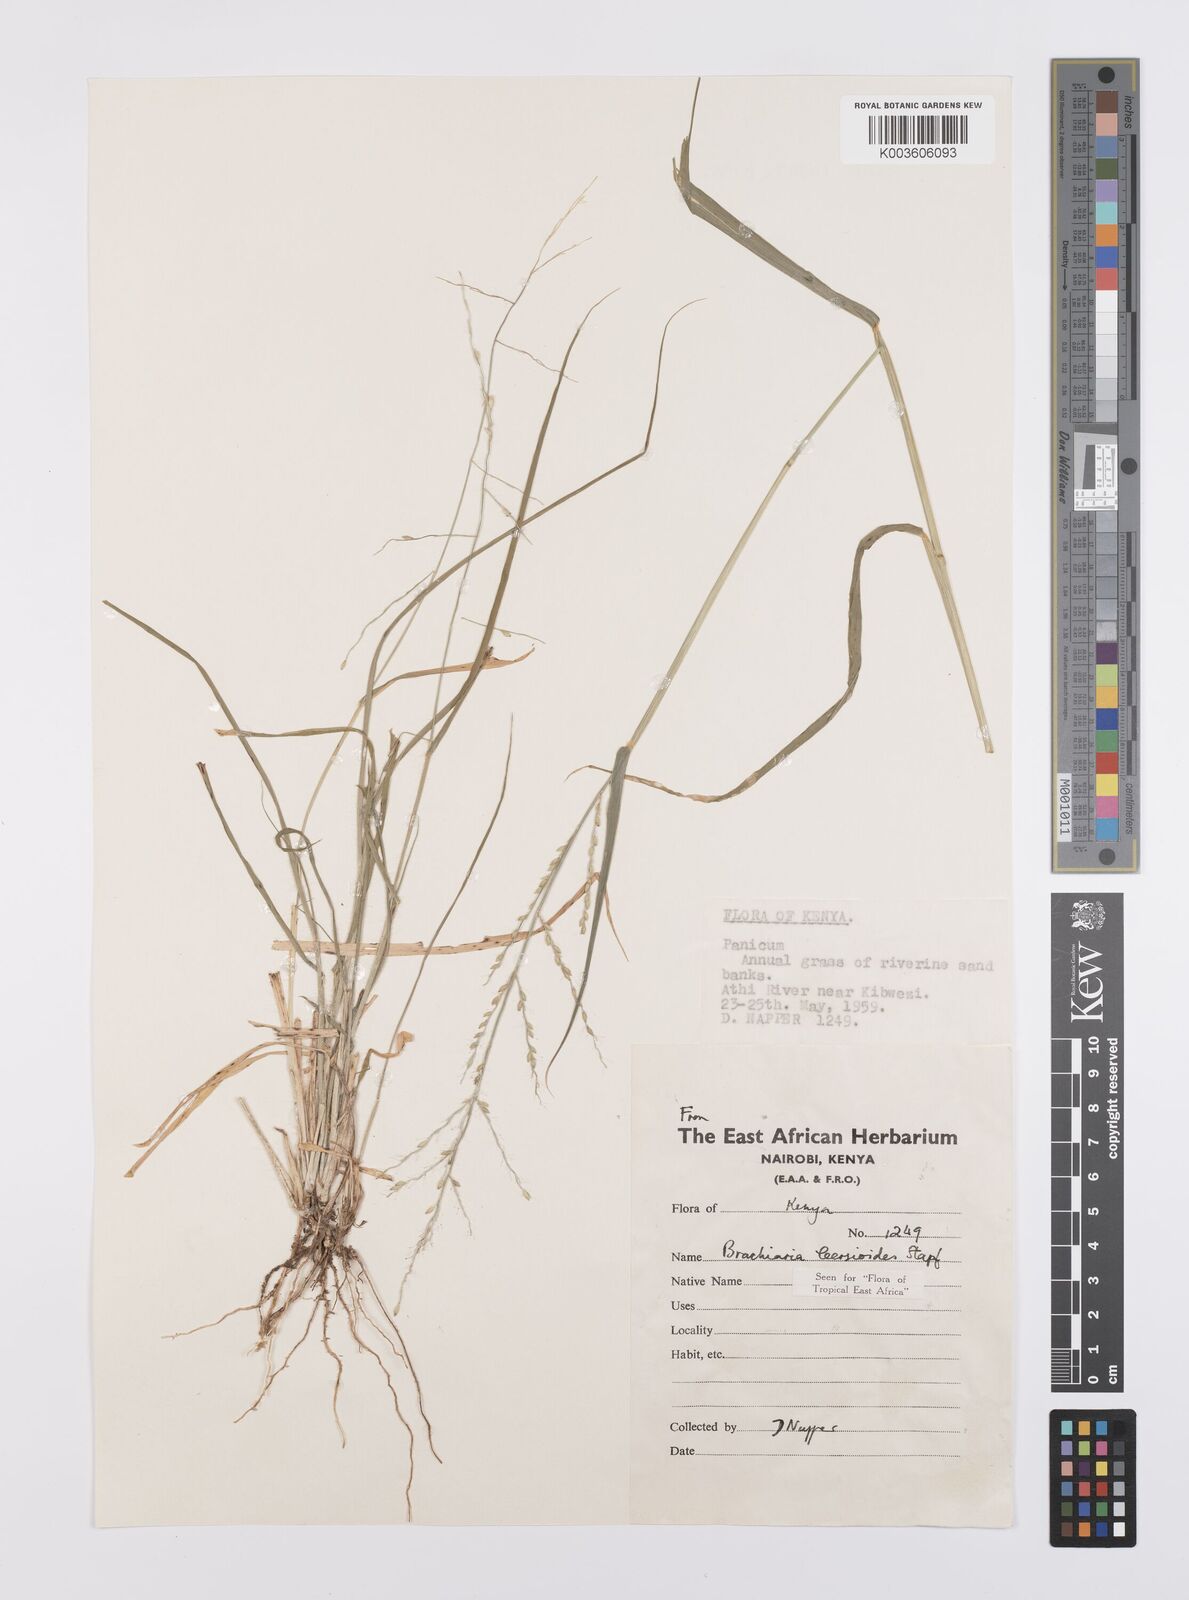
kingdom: Plantae
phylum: Tracheophyta
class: Liliopsida
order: Poales
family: Poaceae
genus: Urochloa
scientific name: Urochloa leersioides
